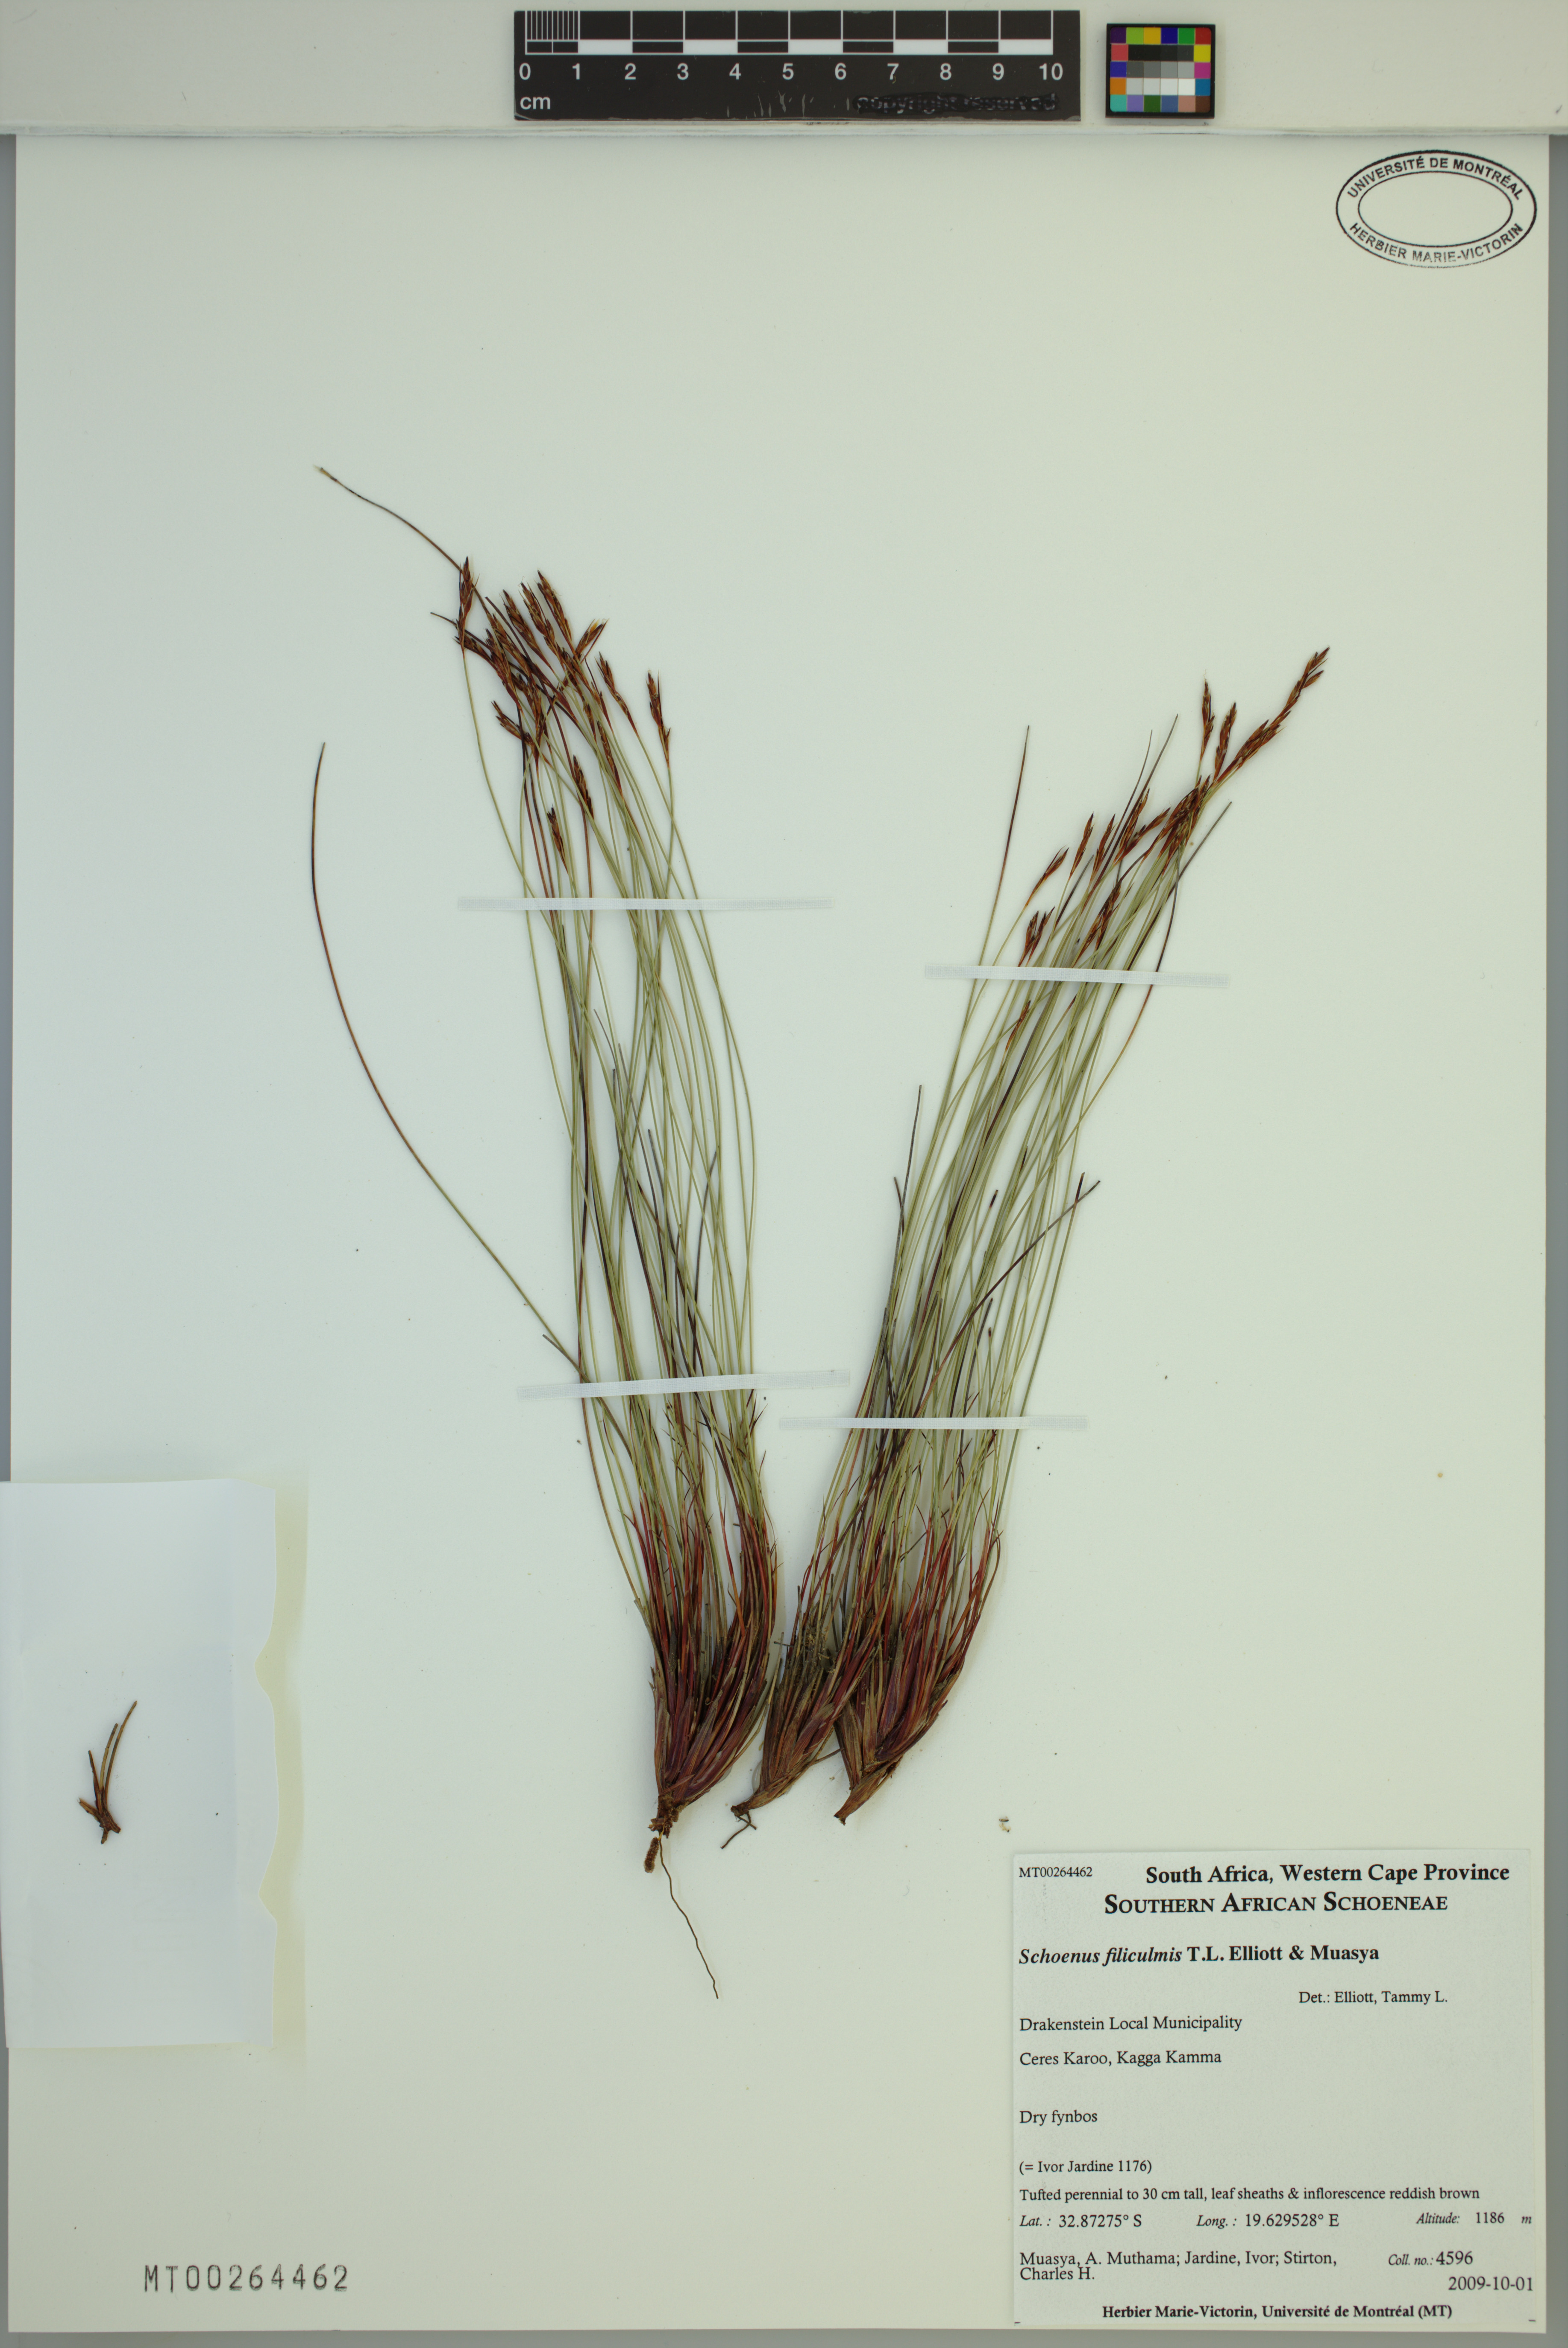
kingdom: Plantae
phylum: Tracheophyta
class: Liliopsida
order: Poales
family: Cyperaceae
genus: Schoenus
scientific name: Schoenus filiculmis
